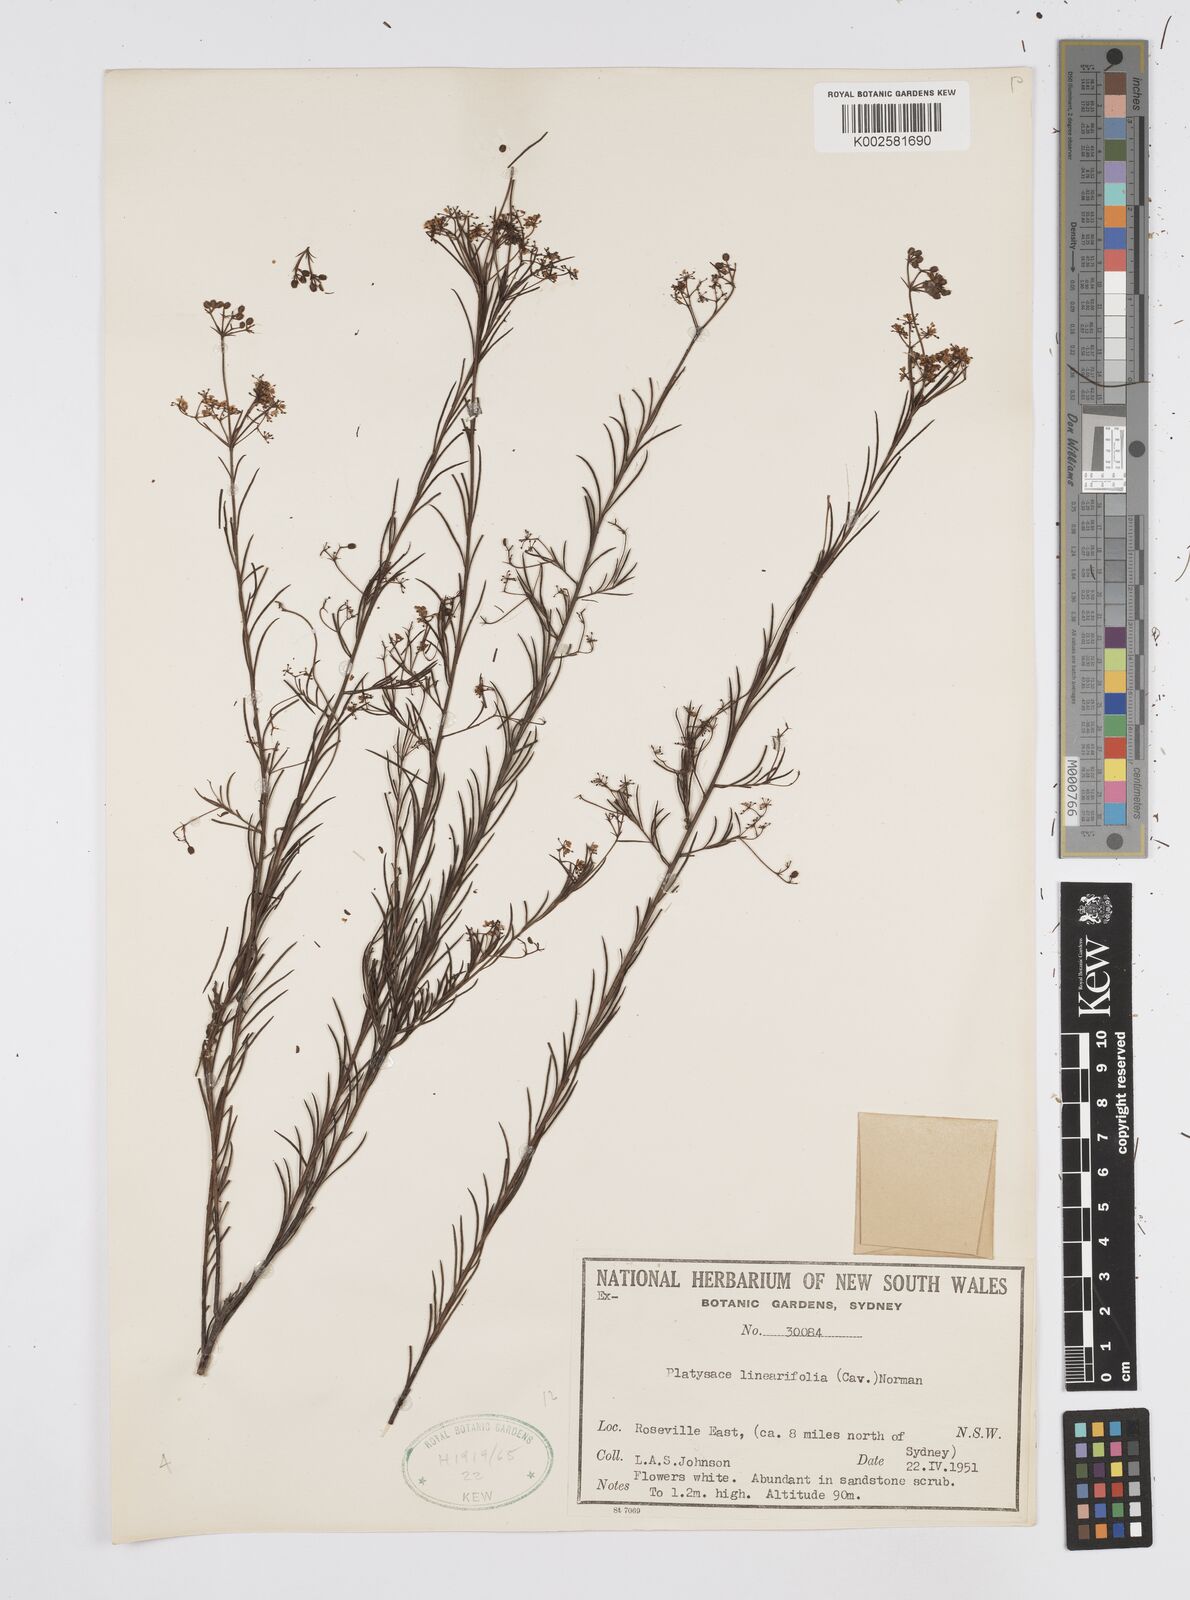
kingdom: Plantae
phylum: Tracheophyta
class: Magnoliopsida
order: Apiales
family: Apiaceae
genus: Platysace
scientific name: Platysace linearifolia
